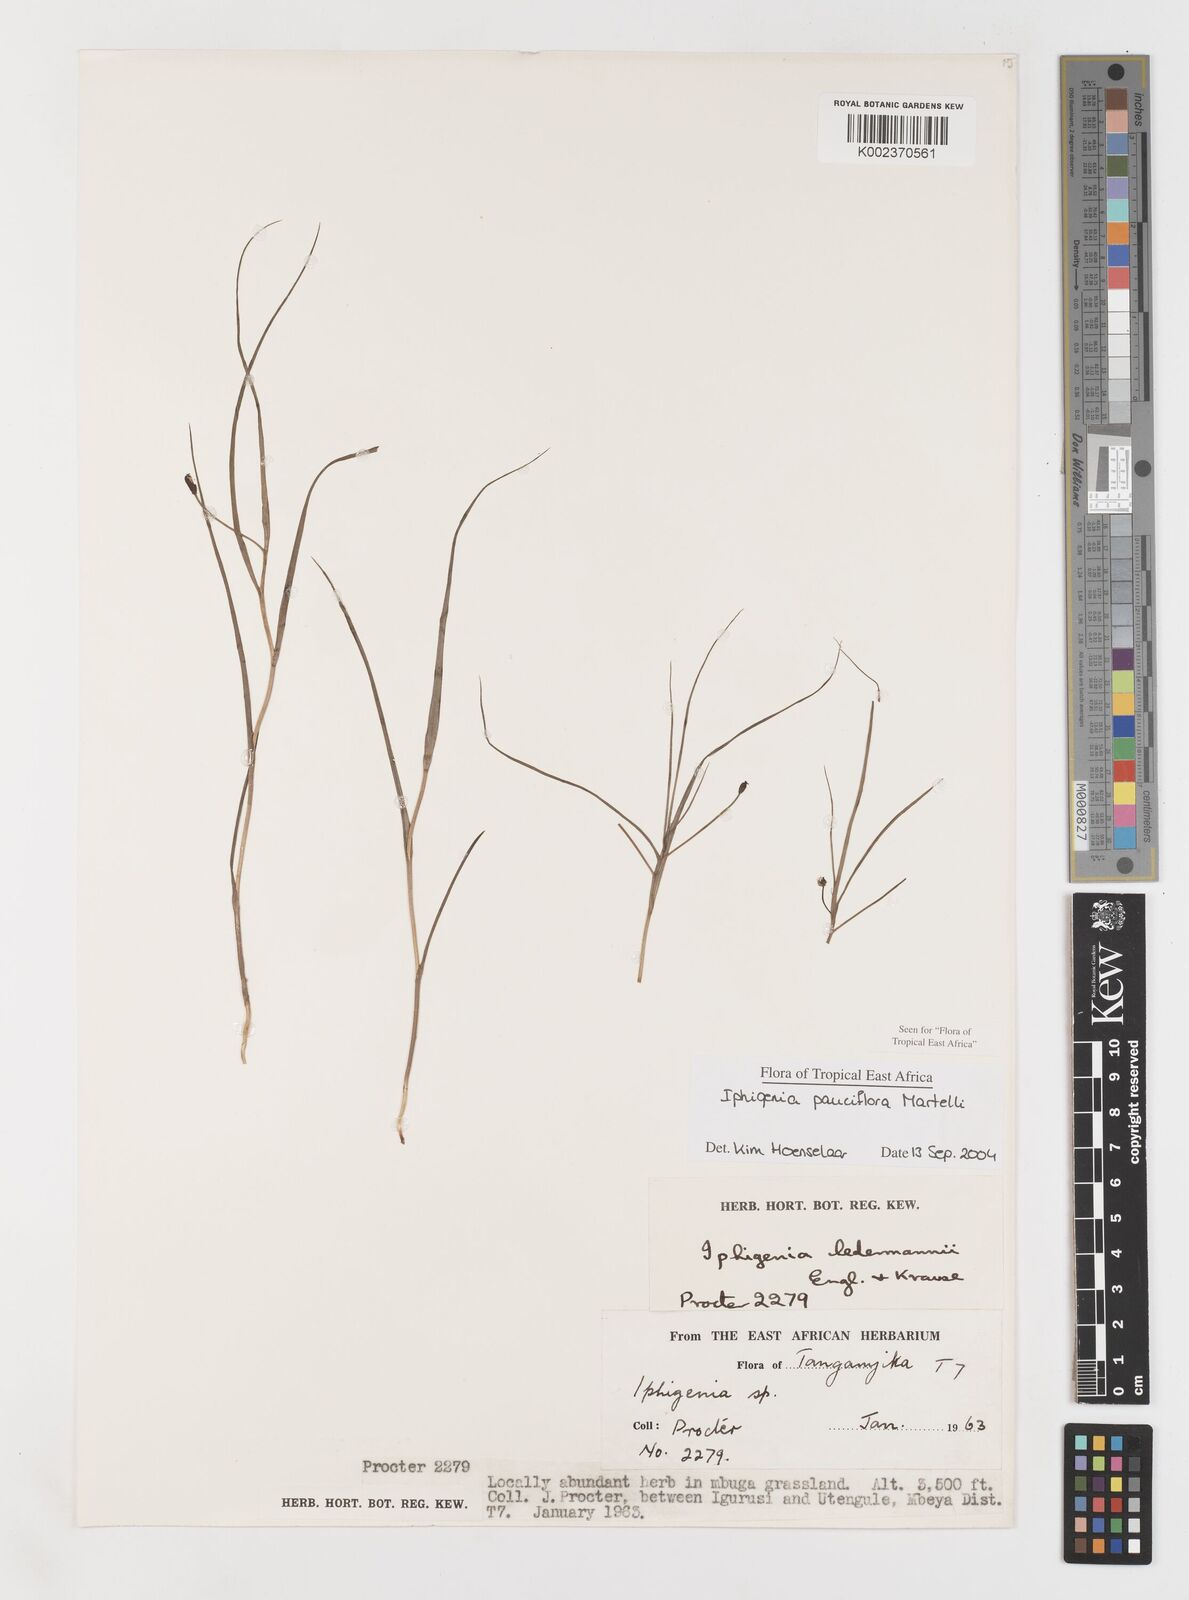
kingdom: Plantae
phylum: Tracheophyta
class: Liliopsida
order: Liliales
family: Colchicaceae
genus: Iphigenia
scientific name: Iphigenia pauciflora
